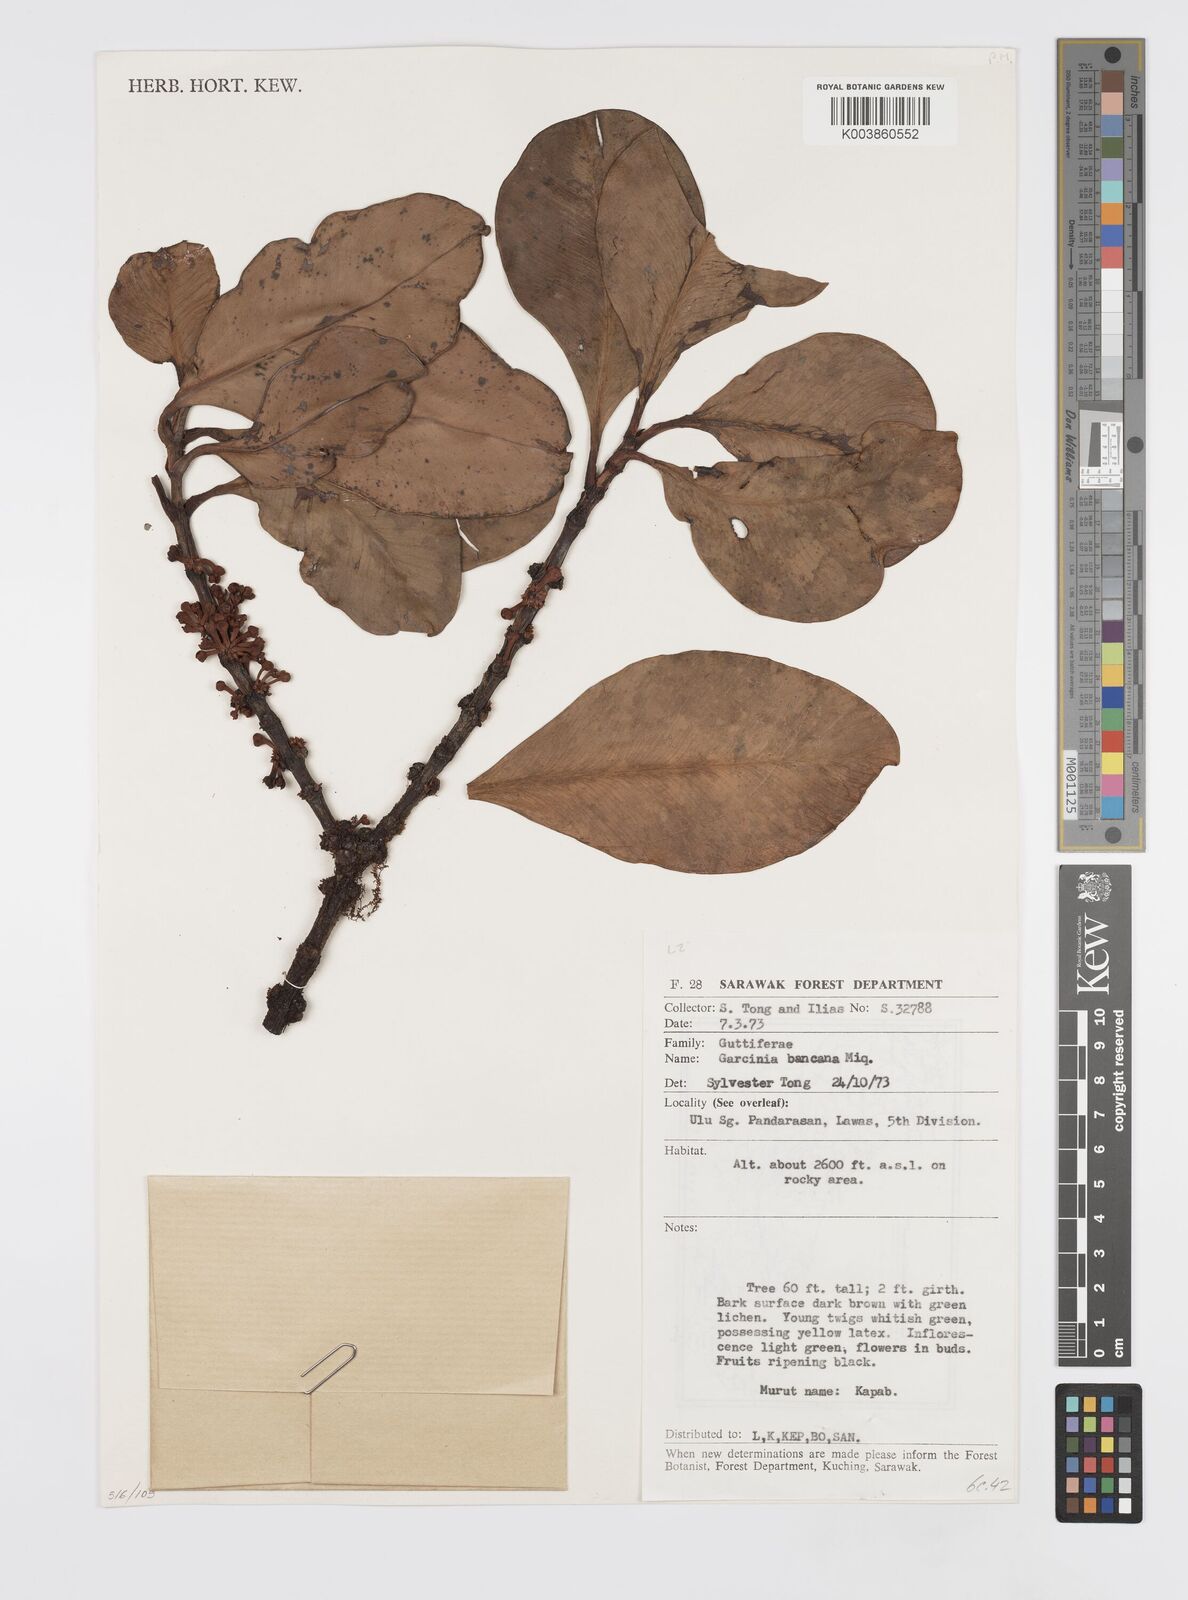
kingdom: Plantae
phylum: Tracheophyta
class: Magnoliopsida
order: Malpighiales
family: Clusiaceae
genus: Garcinia
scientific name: Garcinia bancana
